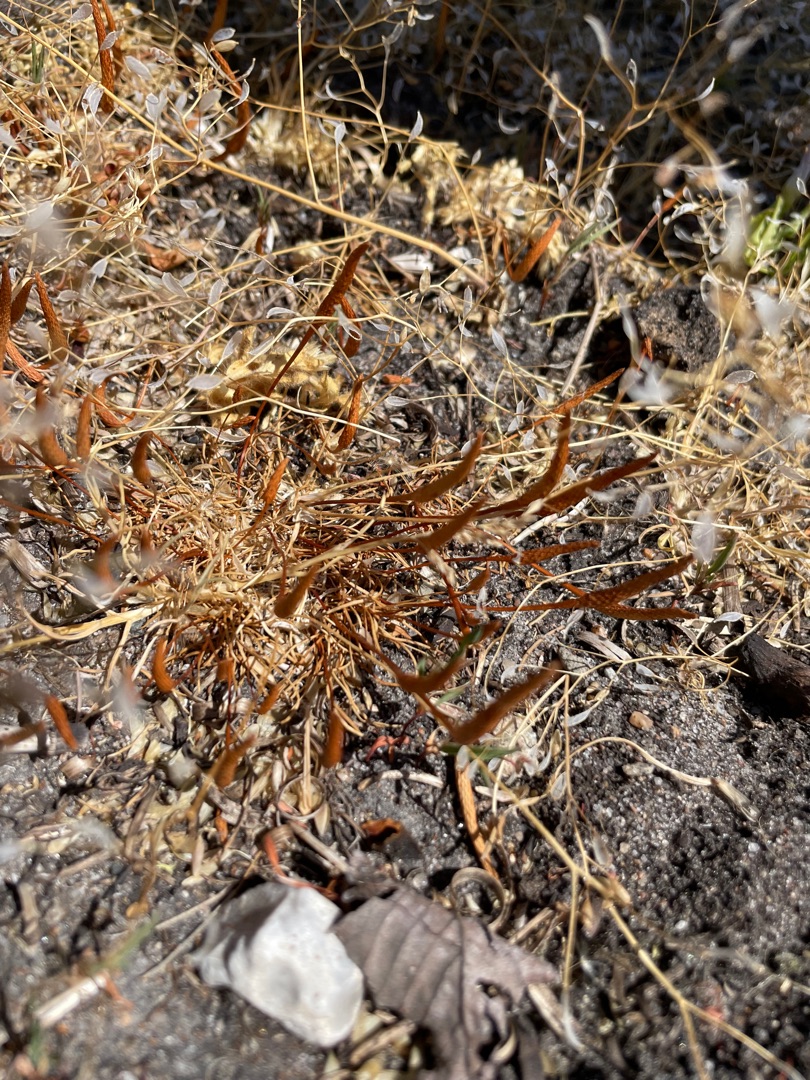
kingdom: Plantae
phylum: Tracheophyta
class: Magnoliopsida
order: Ranunculales
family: Ranunculaceae
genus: Myosurus
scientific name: Myosurus minimus
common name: Musehale
